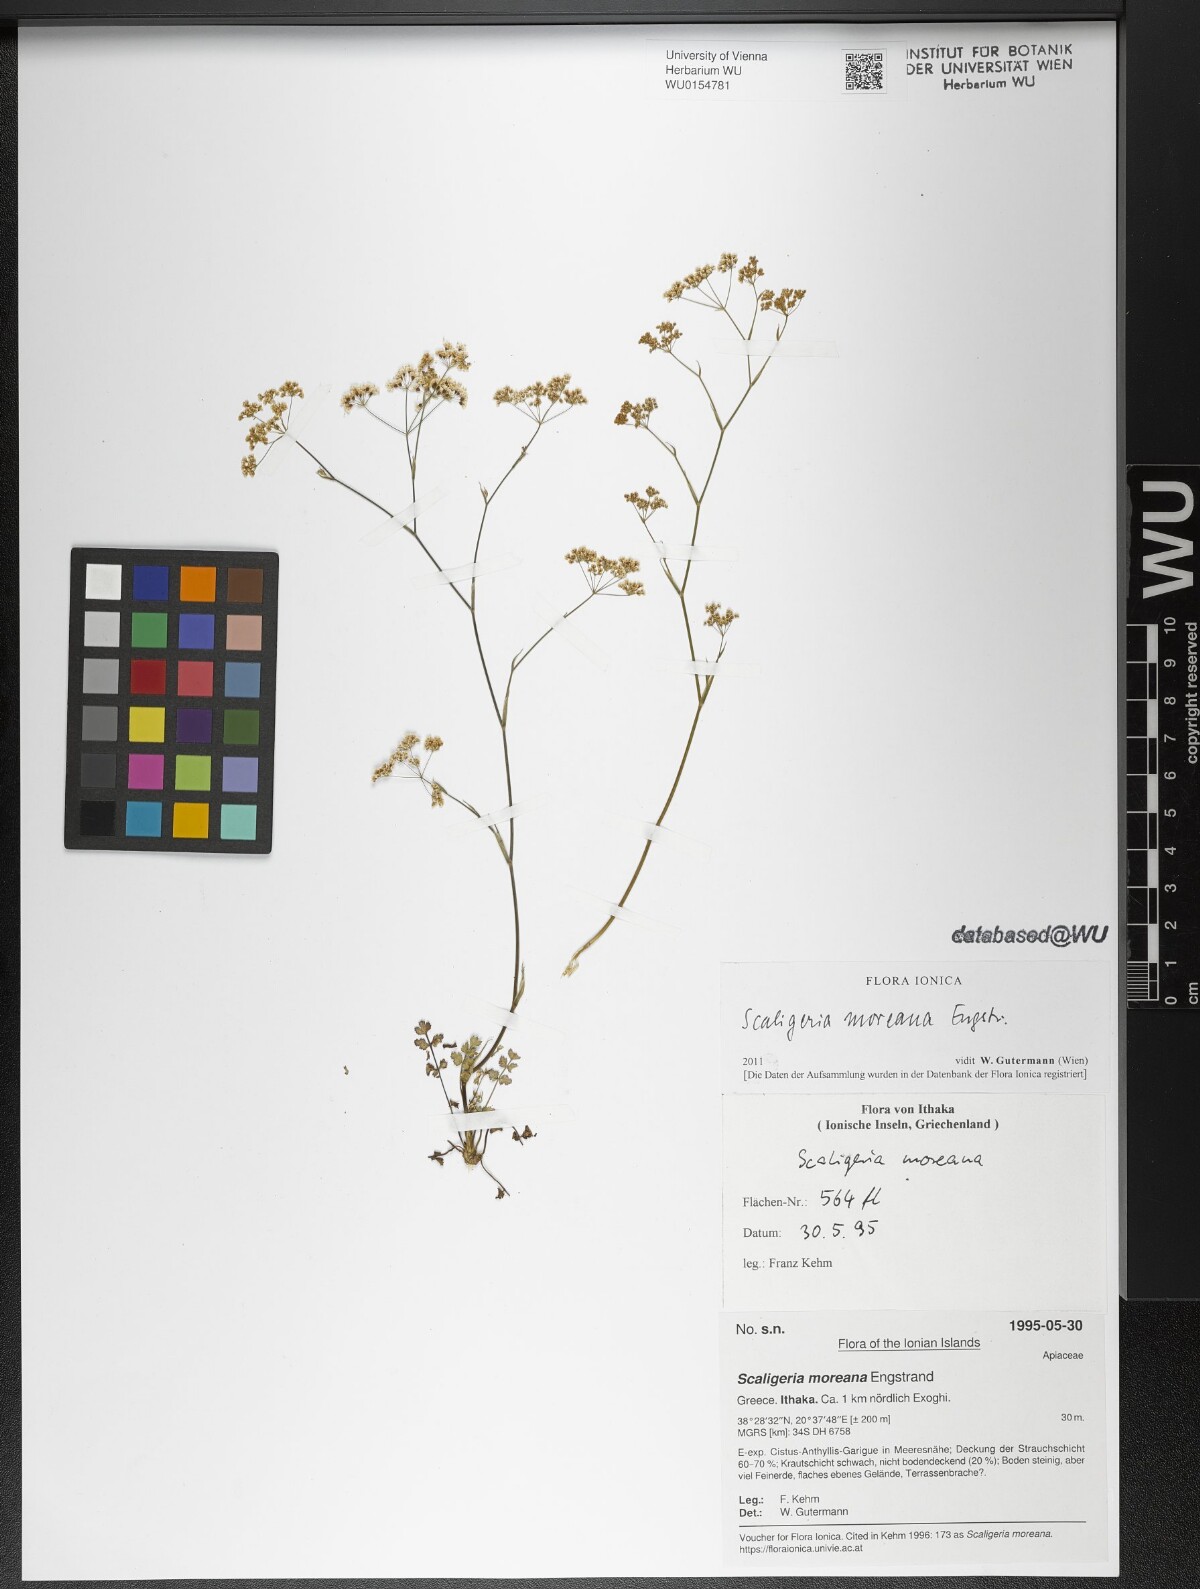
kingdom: Plantae
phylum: Tracheophyta
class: Magnoliopsida
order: Apiales
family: Apiaceae
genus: Scaligeria
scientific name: Scaligeria moreana
